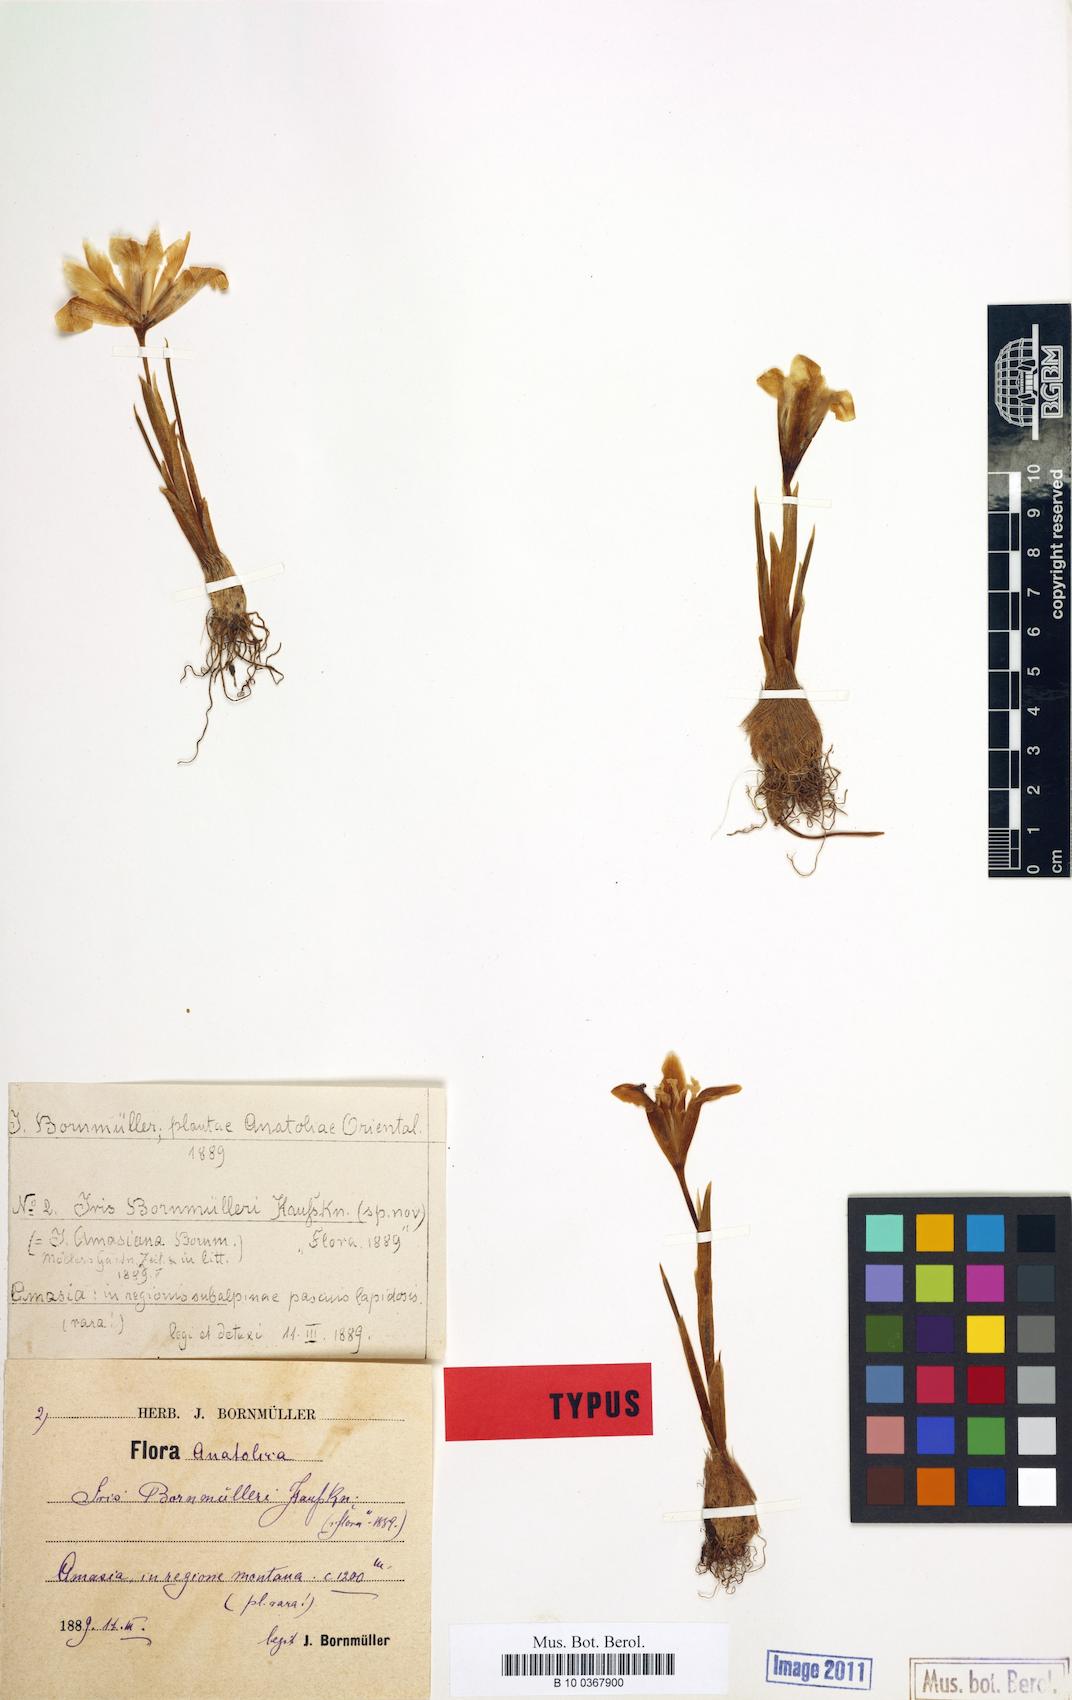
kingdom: Plantae
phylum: Tracheophyta
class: Liliopsida
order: Asparagales
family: Iridaceae
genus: Iris
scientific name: Iris danfordiae
